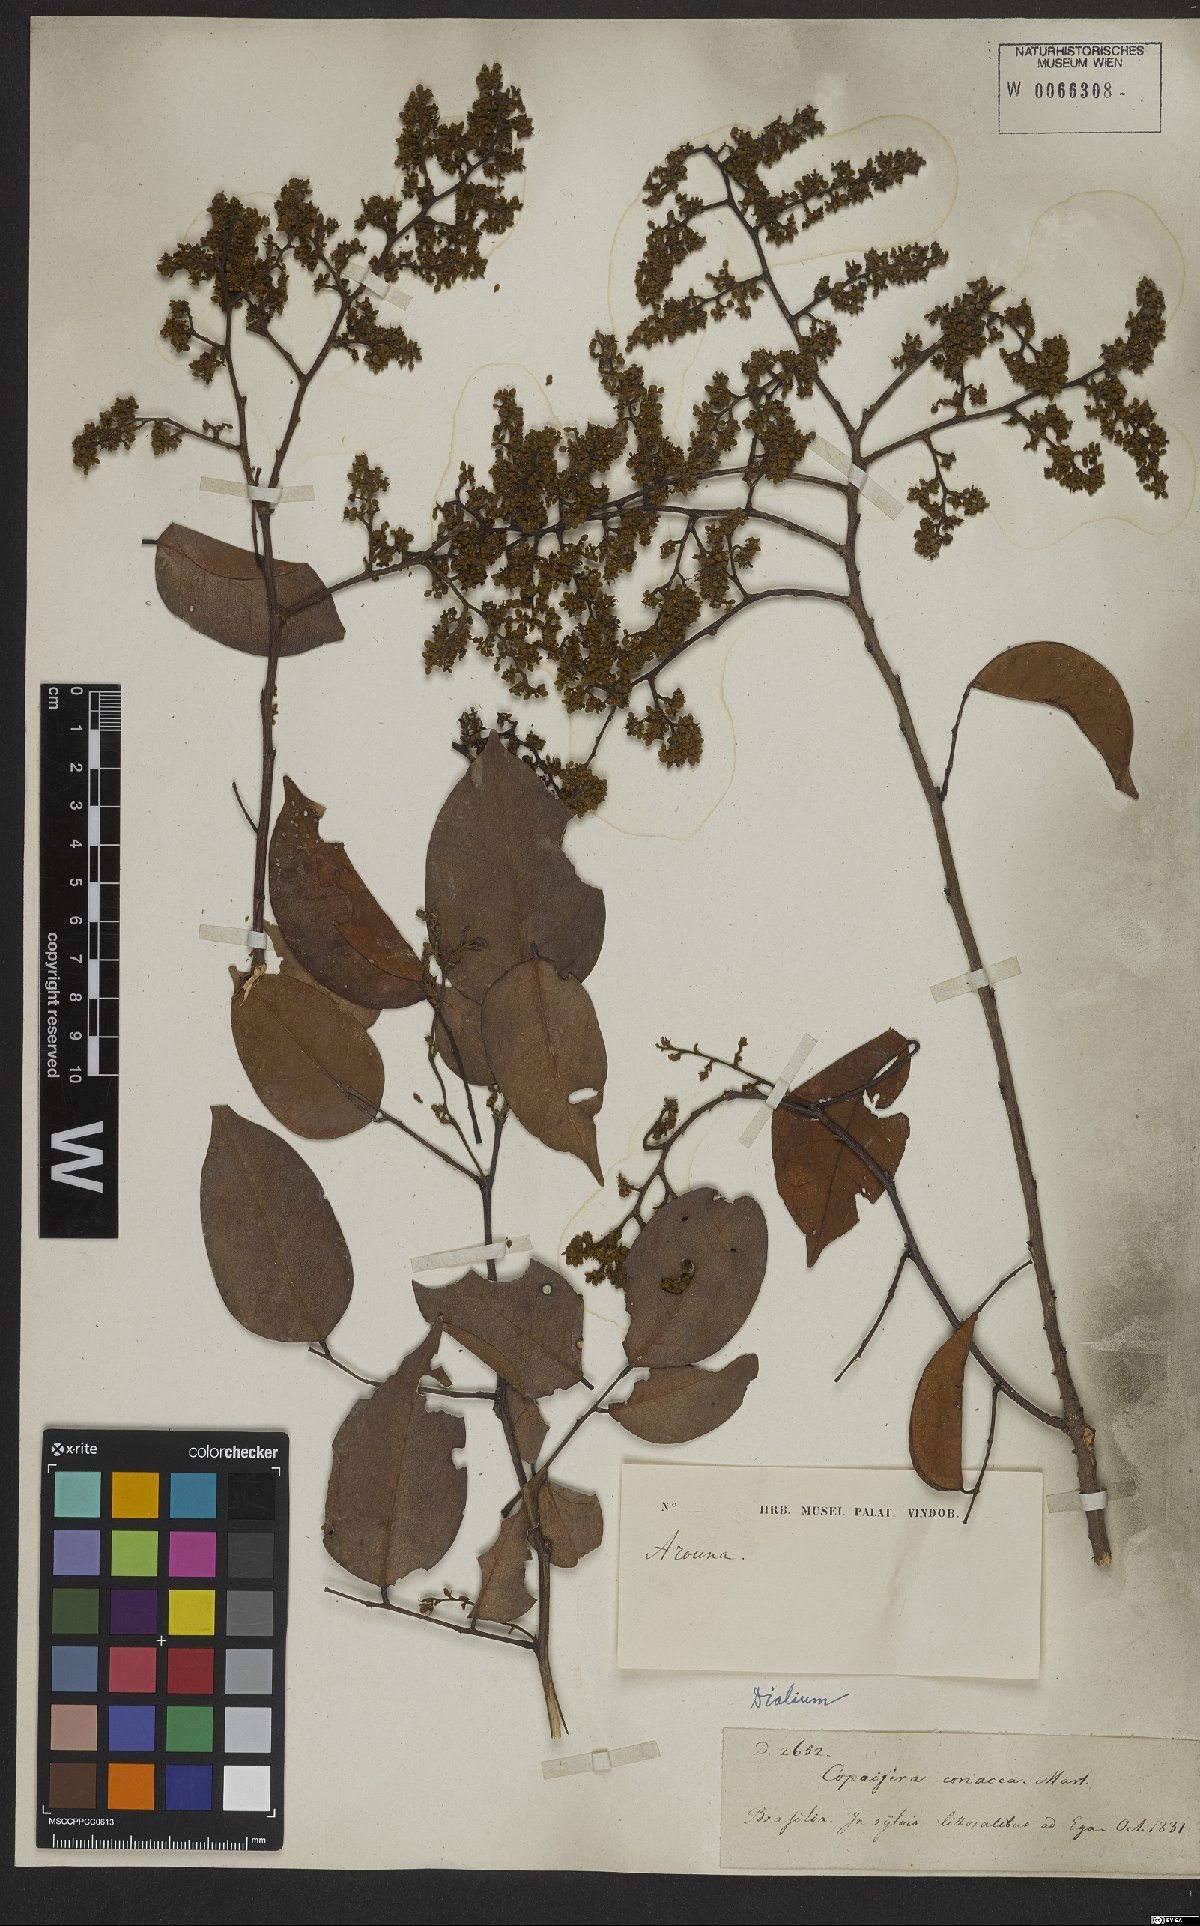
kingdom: Plantae
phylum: Tracheophyta
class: Magnoliopsida
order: Fabales
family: Fabaceae
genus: Dialium
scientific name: Dialium
